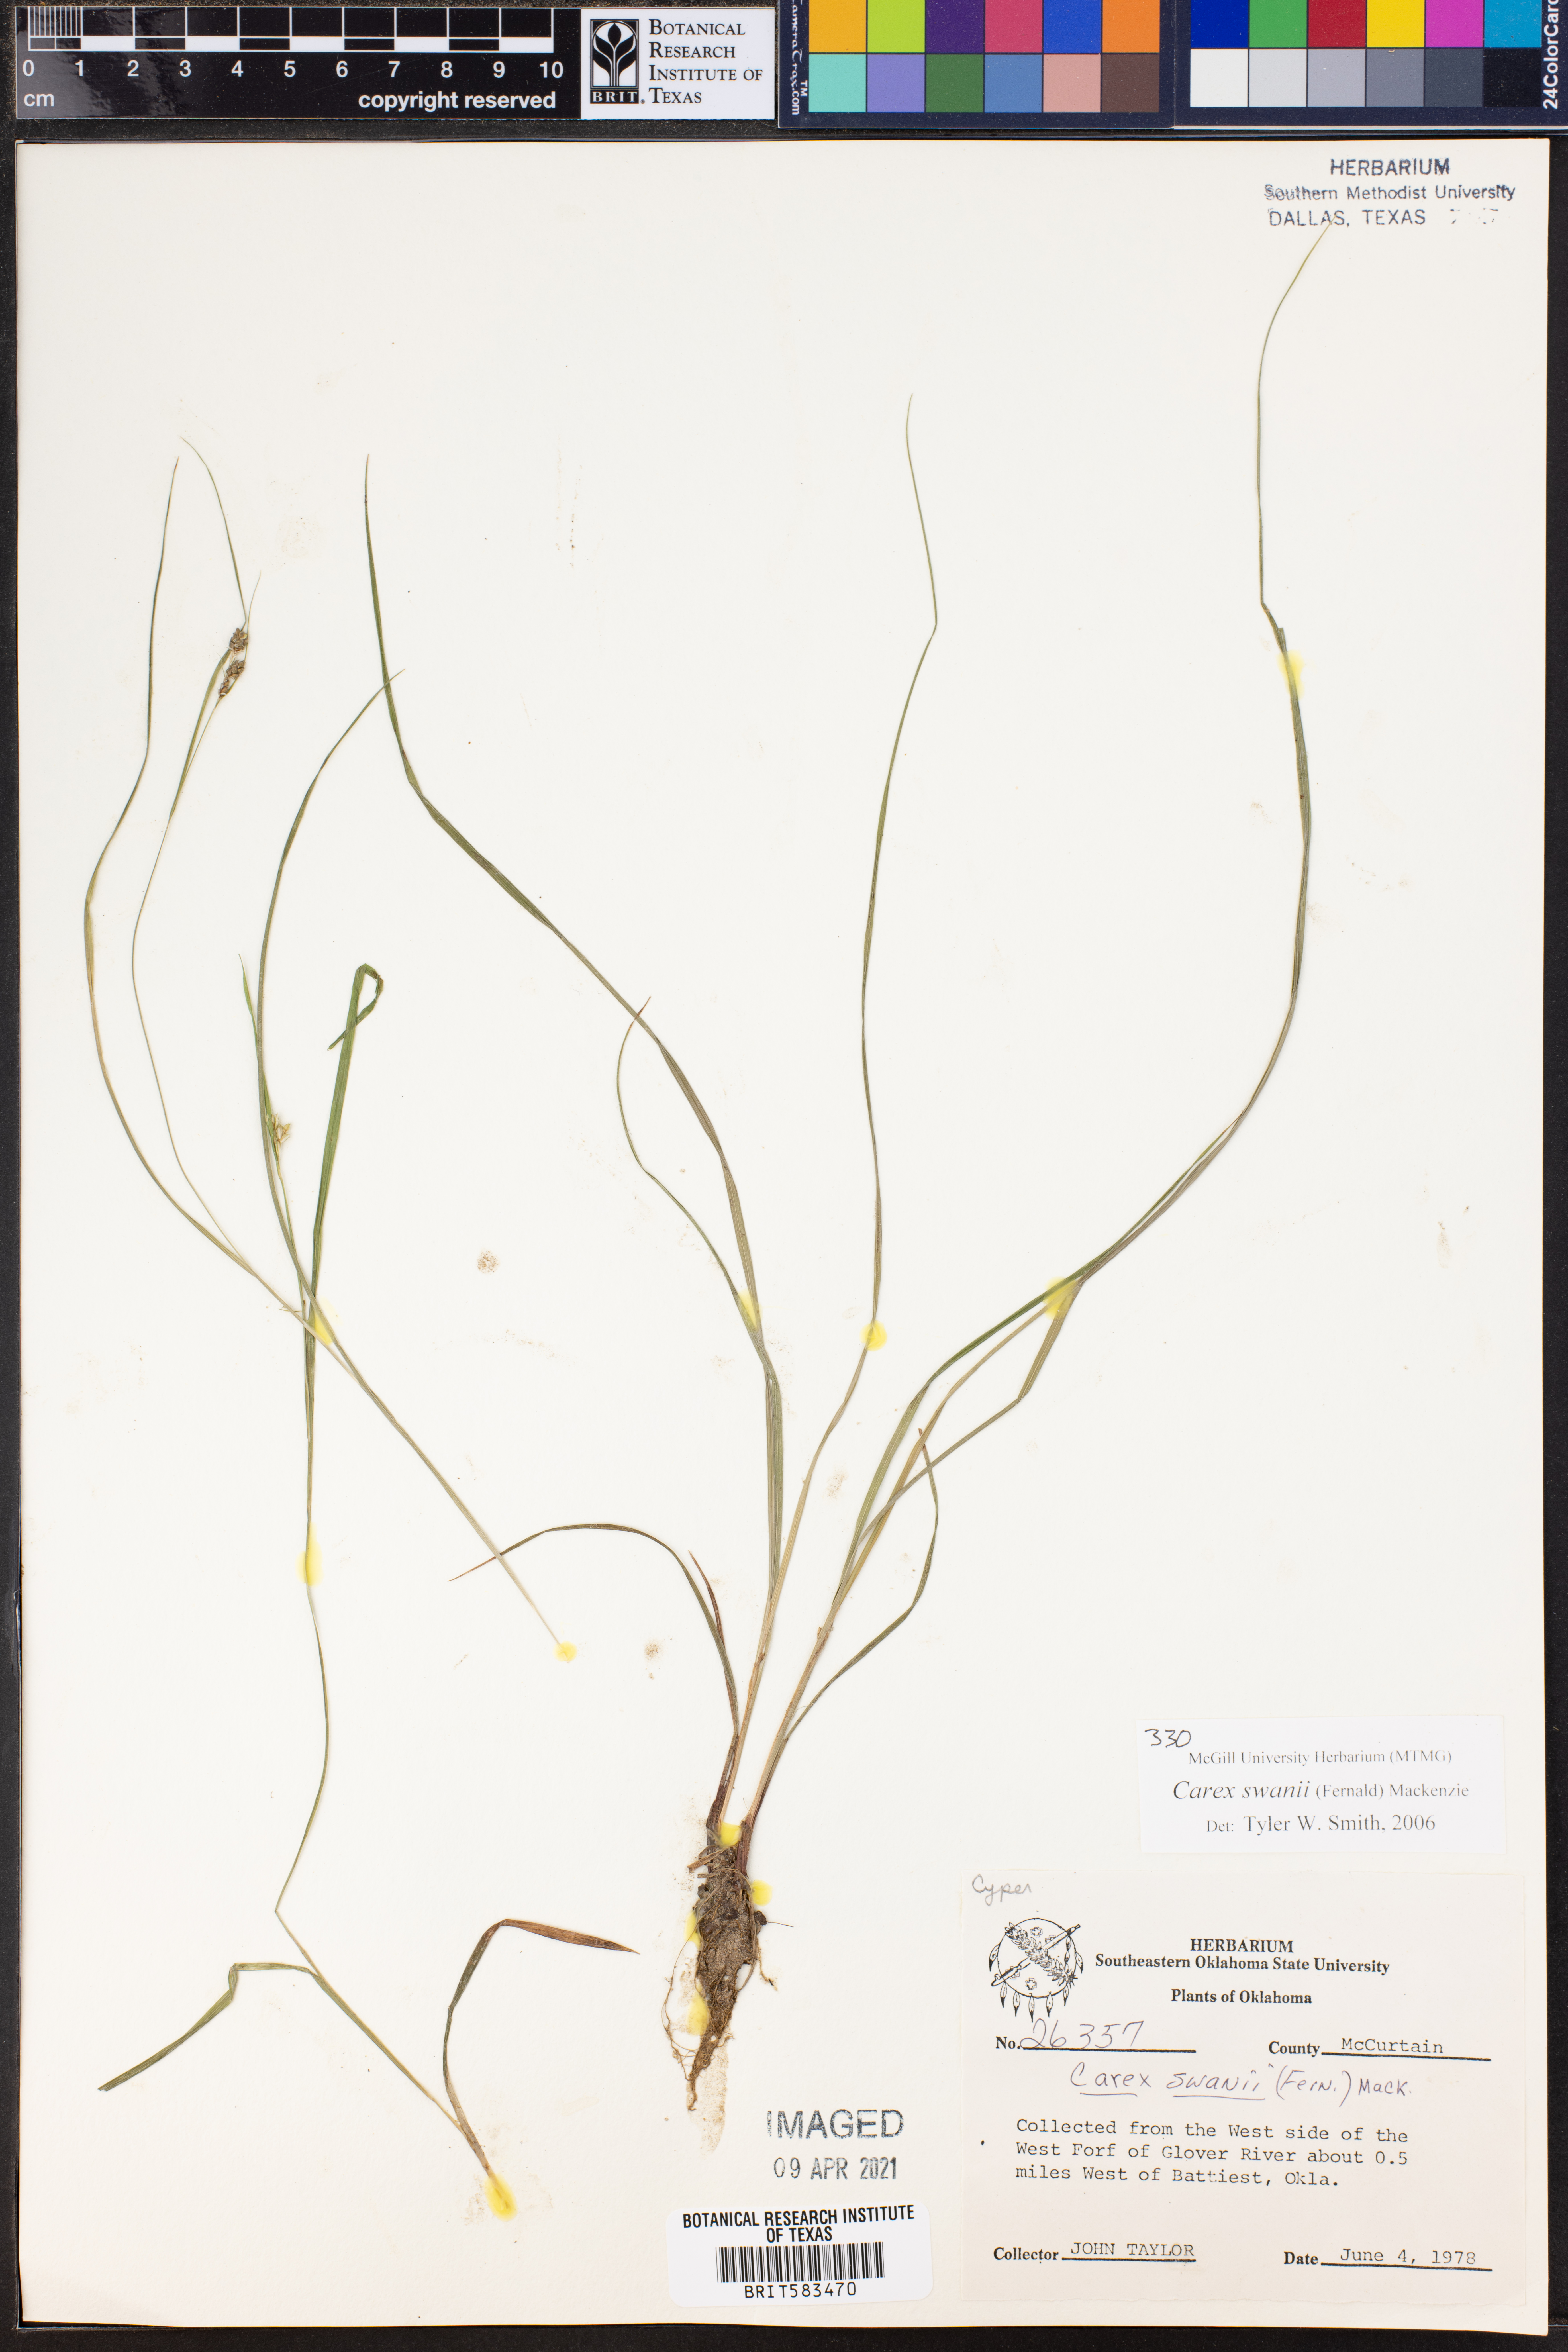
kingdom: Plantae
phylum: Tracheophyta
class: Liliopsida
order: Poales
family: Cyperaceae
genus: Carex
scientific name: Carex swanii
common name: Downy green sedge
